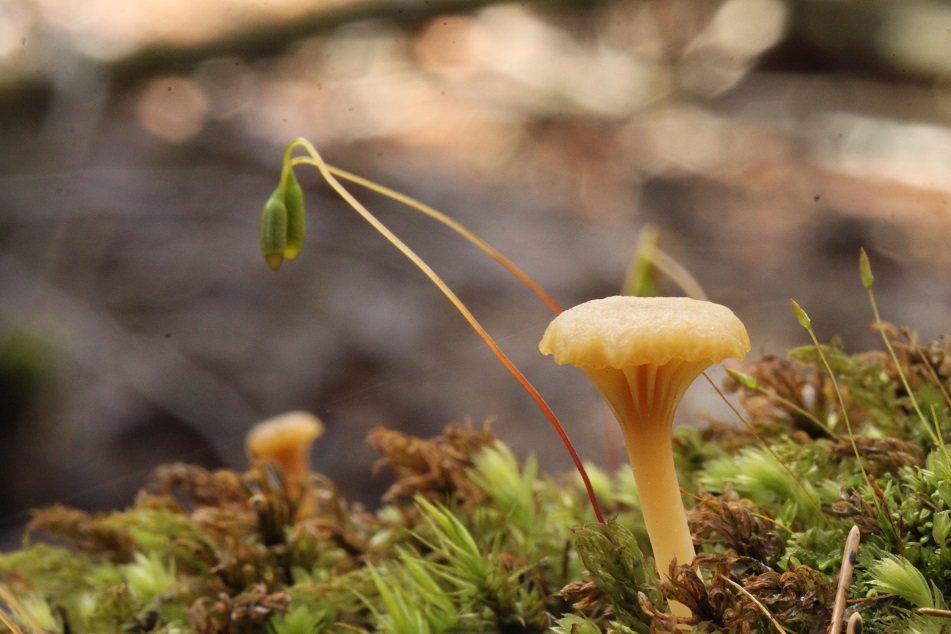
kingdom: Fungi
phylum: Basidiomycota
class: Agaricomycetes
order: Agaricales
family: Hygrophoraceae
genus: Lichenomphalia
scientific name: Lichenomphalia umbellifera
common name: tørve-lavhat
